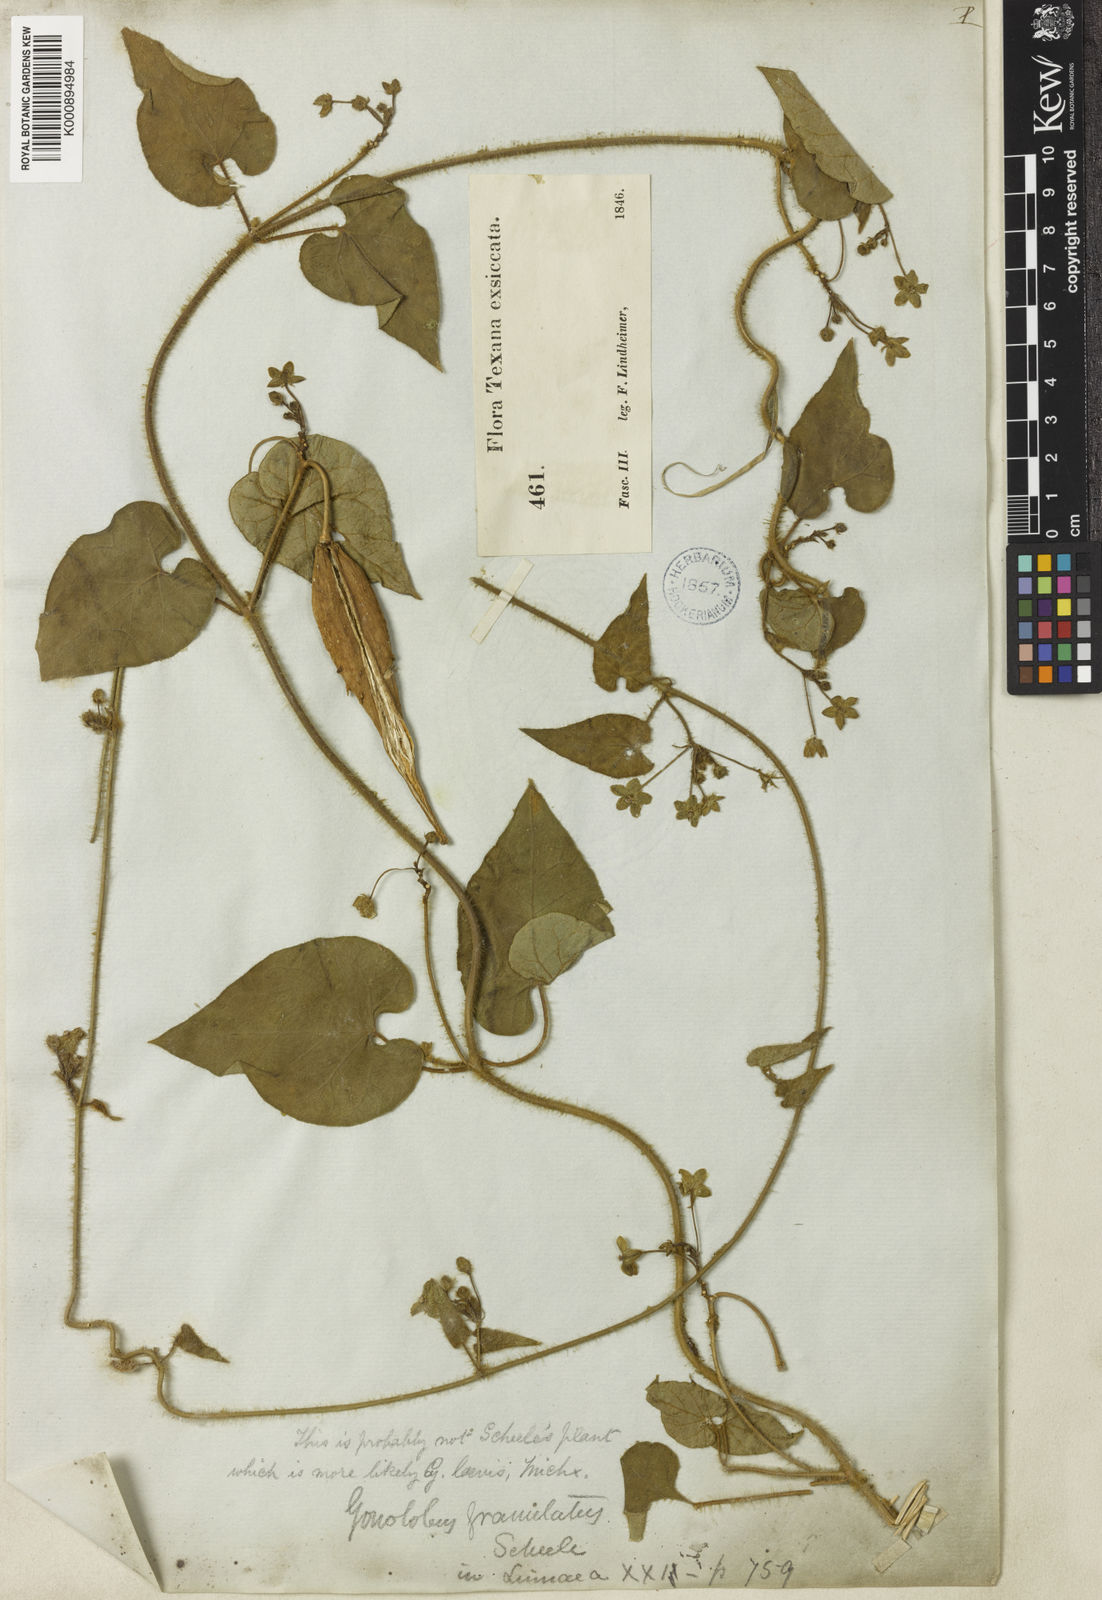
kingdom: Plantae
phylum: Tracheophyta
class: Magnoliopsida
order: Gentianales
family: Apocynaceae
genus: Dictyanthus
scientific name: Dictyanthus reticulatus
